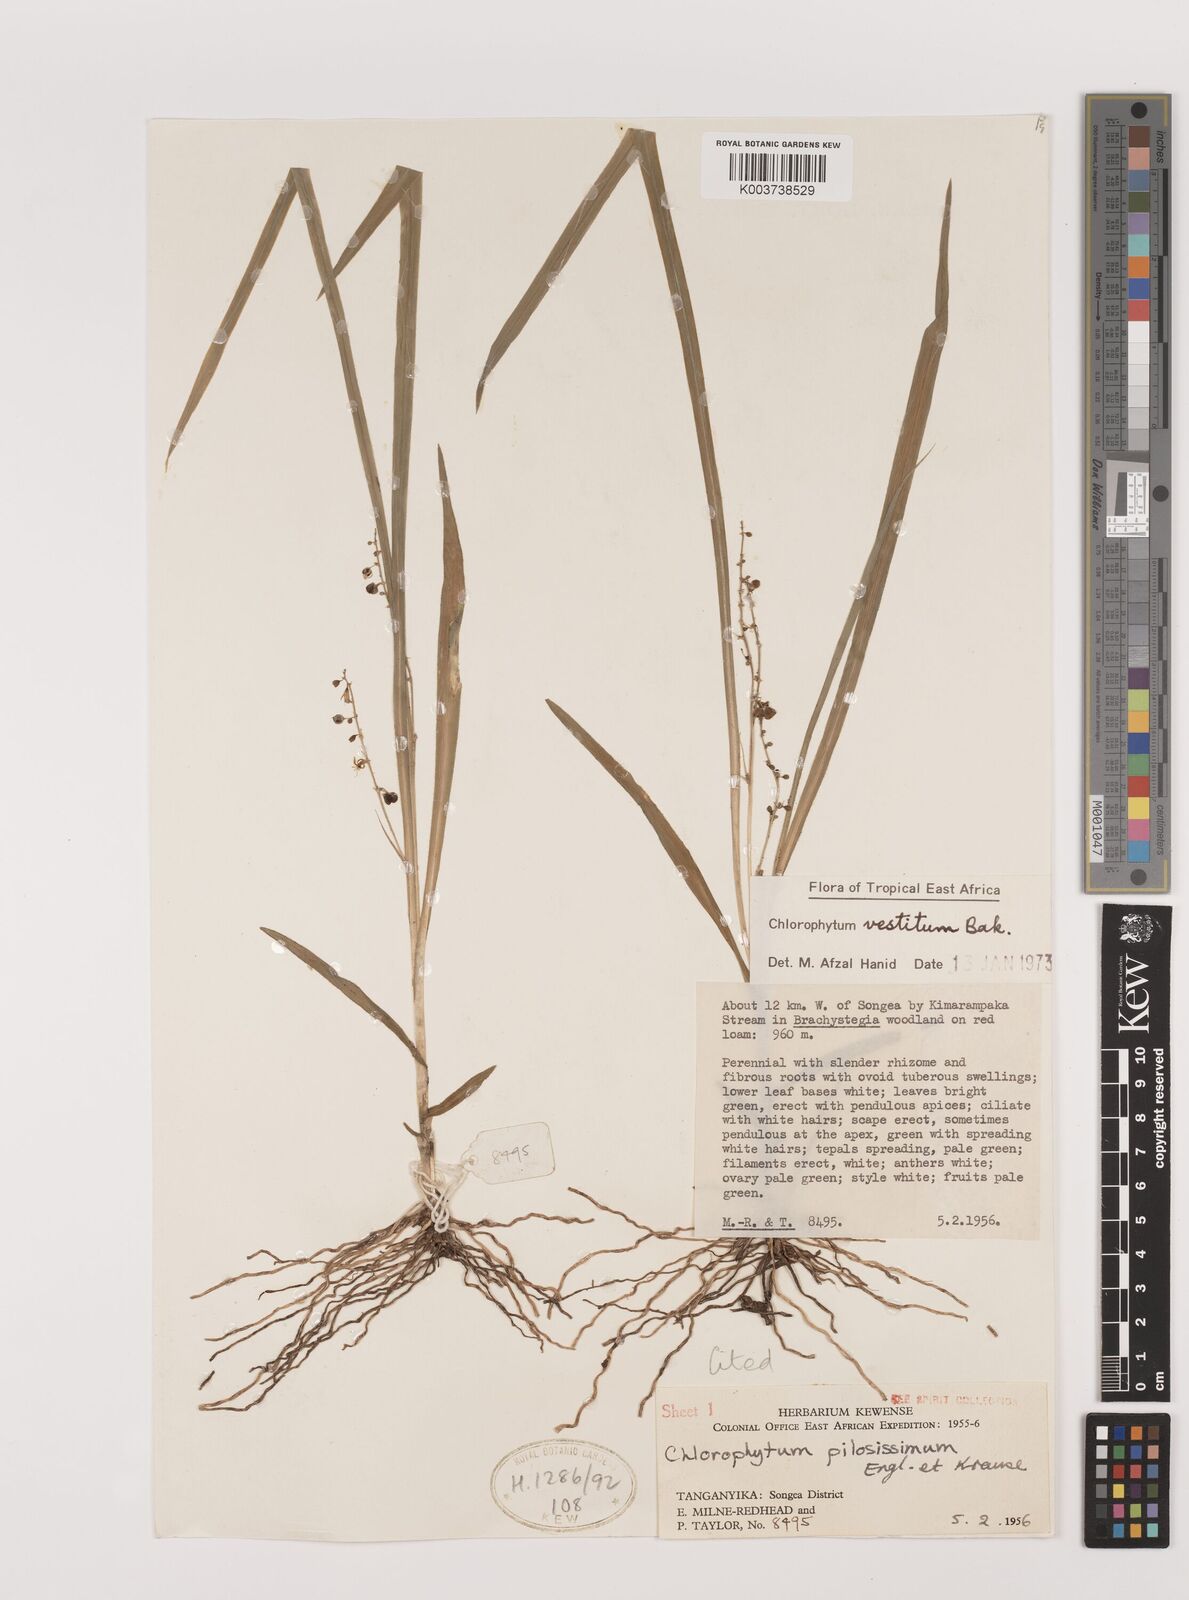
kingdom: Plantae
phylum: Tracheophyta
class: Liliopsida
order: Asparagales
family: Asparagaceae
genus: Chlorophytum
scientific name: Chlorophytum vestitum
